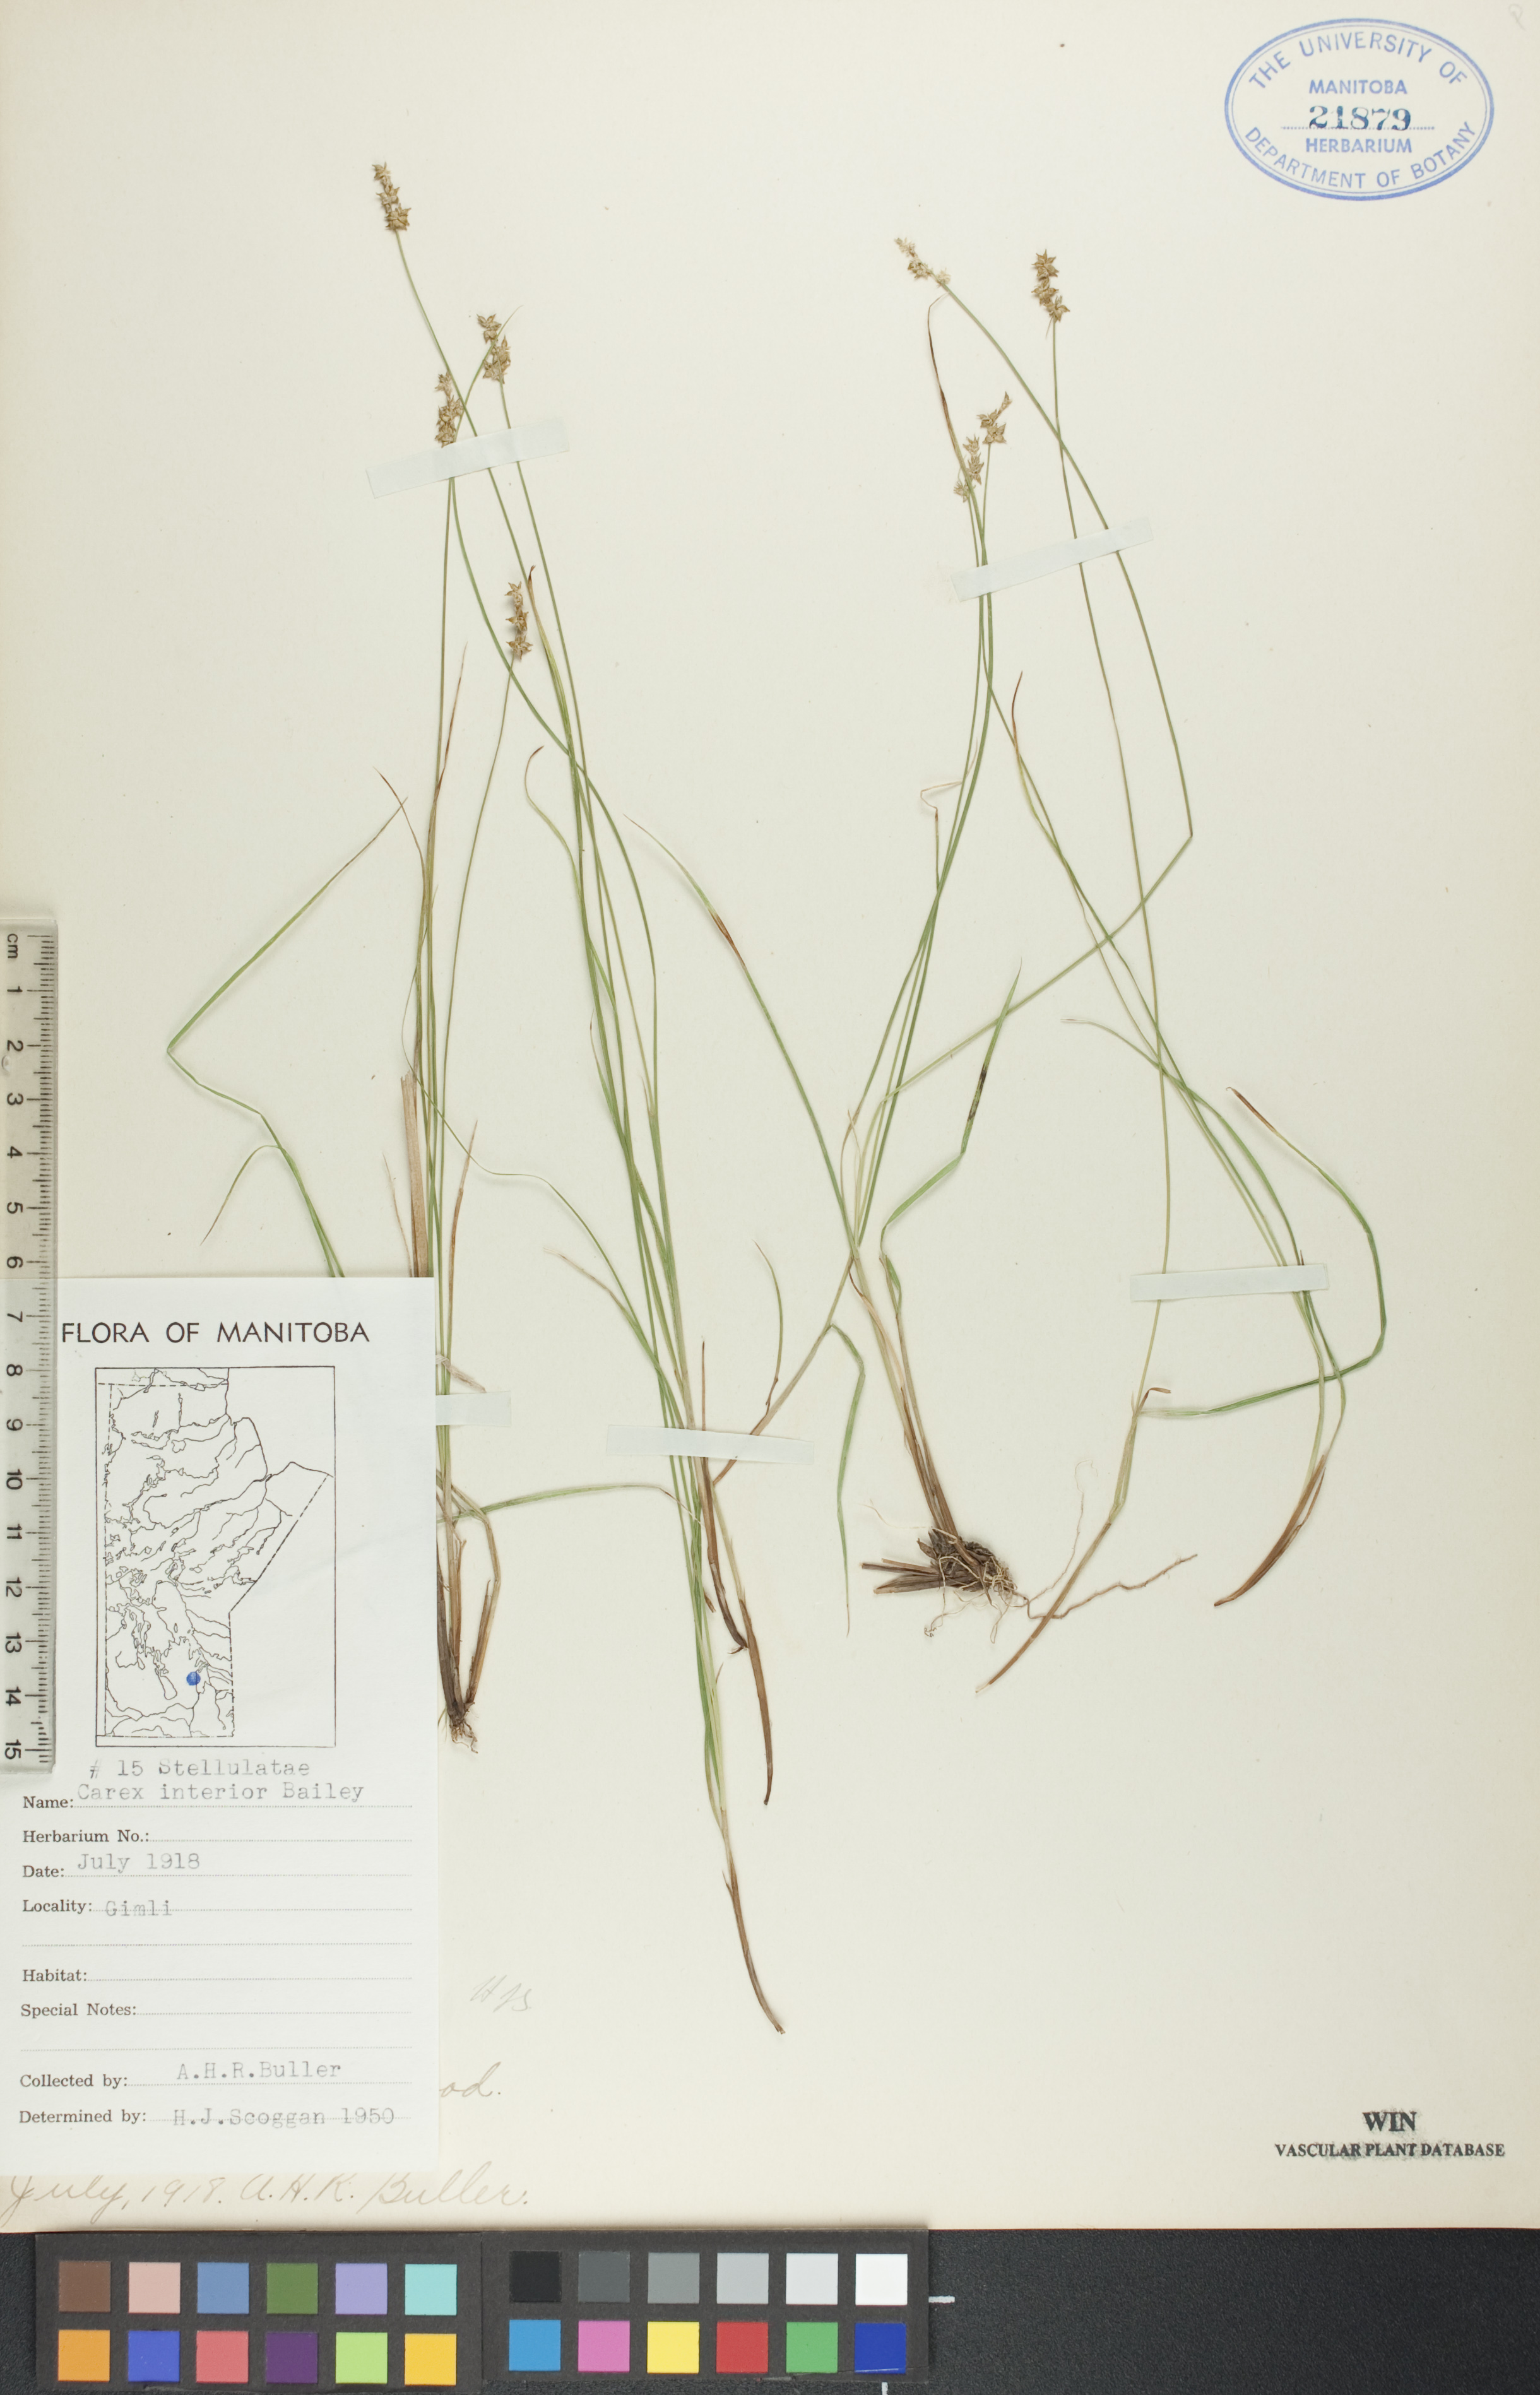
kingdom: Plantae
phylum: Tracheophyta
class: Liliopsida
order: Poales
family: Cyperaceae
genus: Carex
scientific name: Carex interior
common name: Inland sedge
